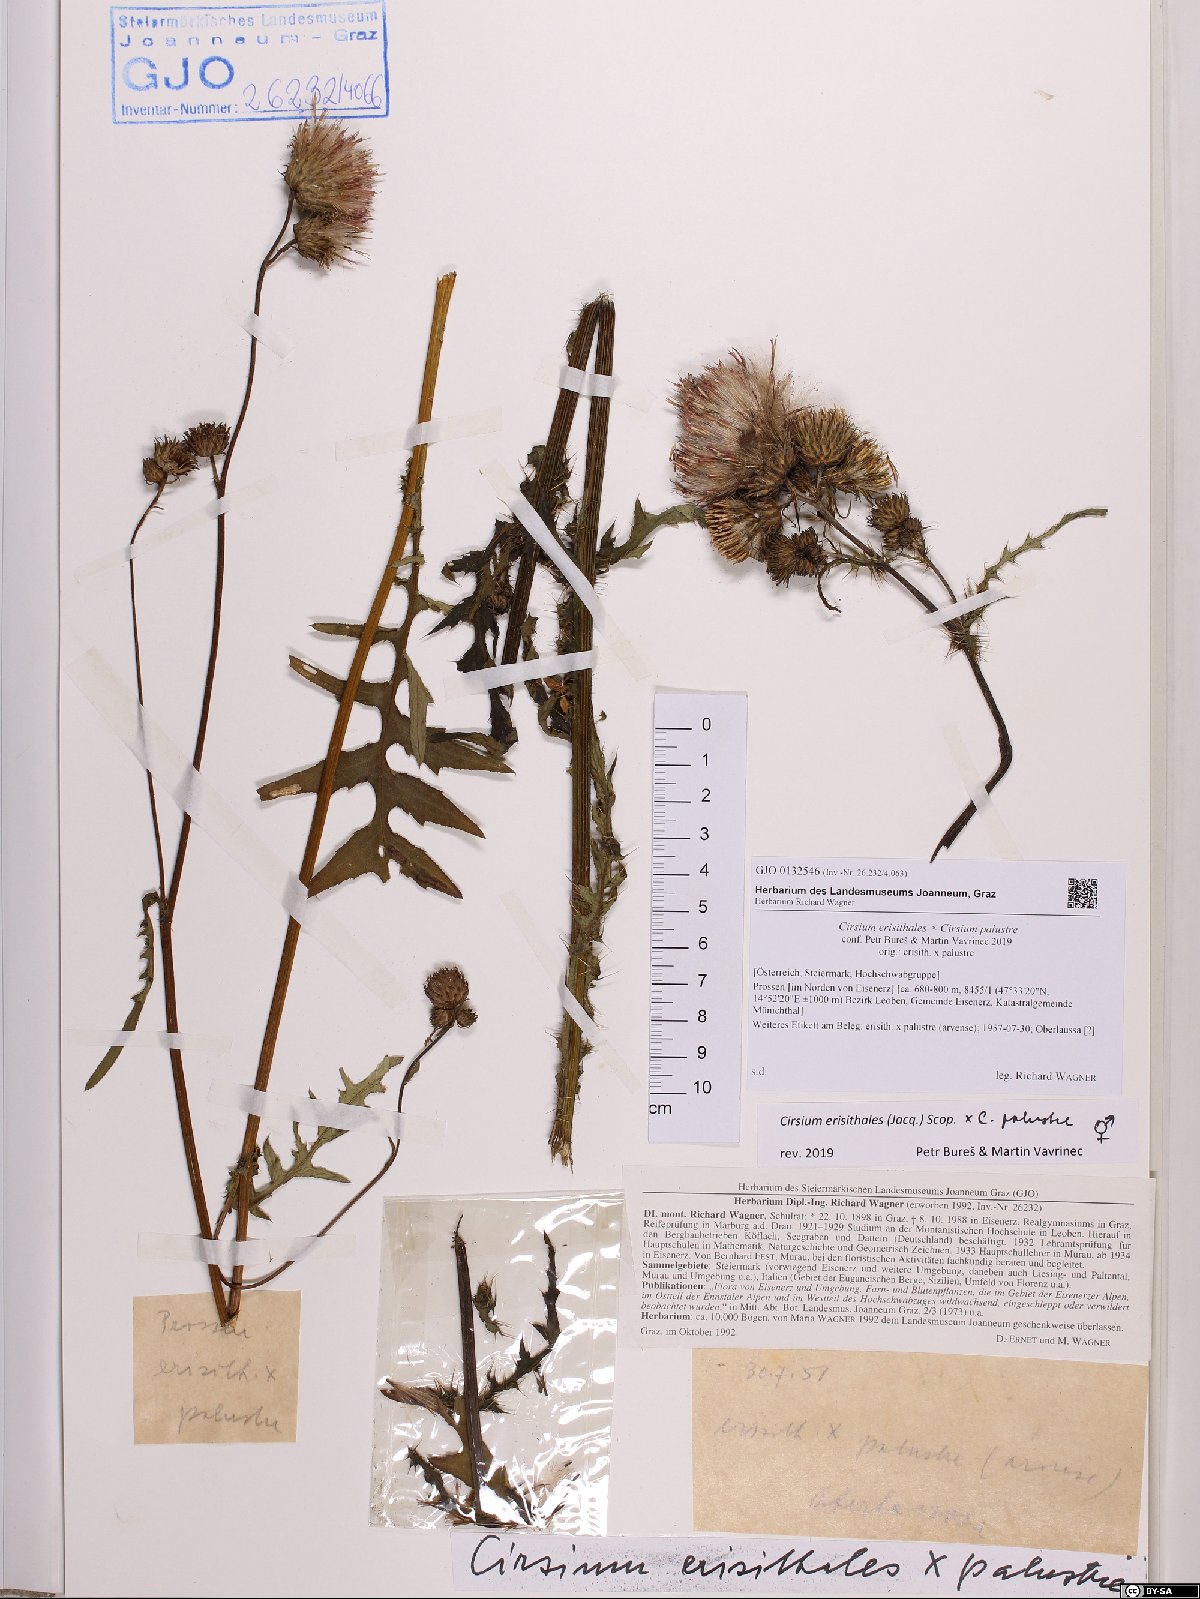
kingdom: Plantae
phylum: Tracheophyta
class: Magnoliopsida
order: Asterales
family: Asteraceae
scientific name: Asteraceae
